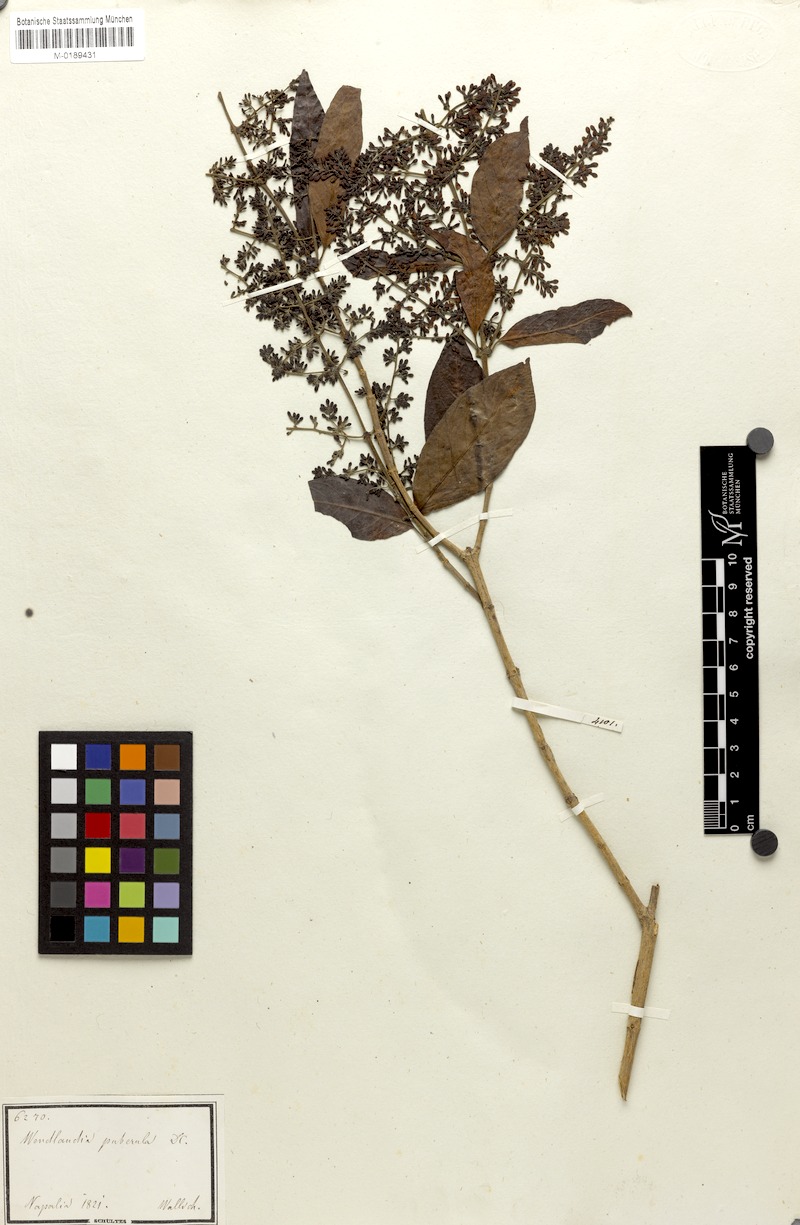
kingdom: Plantae
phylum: Tracheophyta
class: Magnoliopsida
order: Gentianales
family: Rubiaceae
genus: Wendlandia
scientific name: Wendlandia puberula
